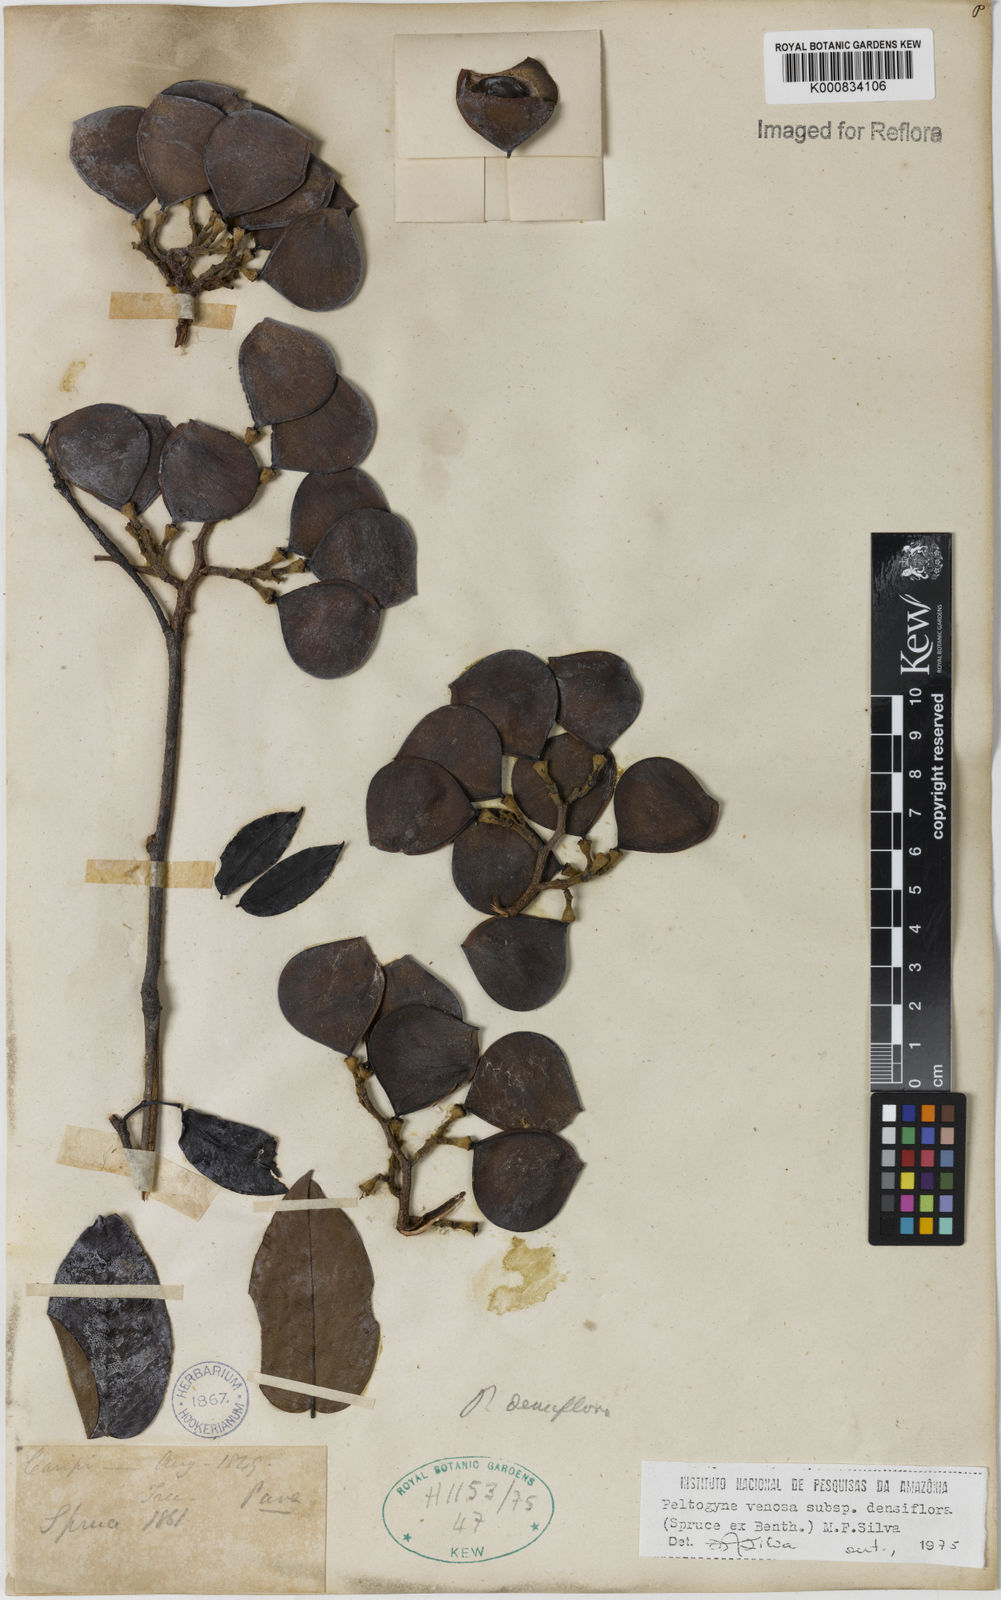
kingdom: Plantae
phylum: Tracheophyta
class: Magnoliopsida
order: Fabales
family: Fabaceae
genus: Peltogyne
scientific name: Peltogyne venosa
